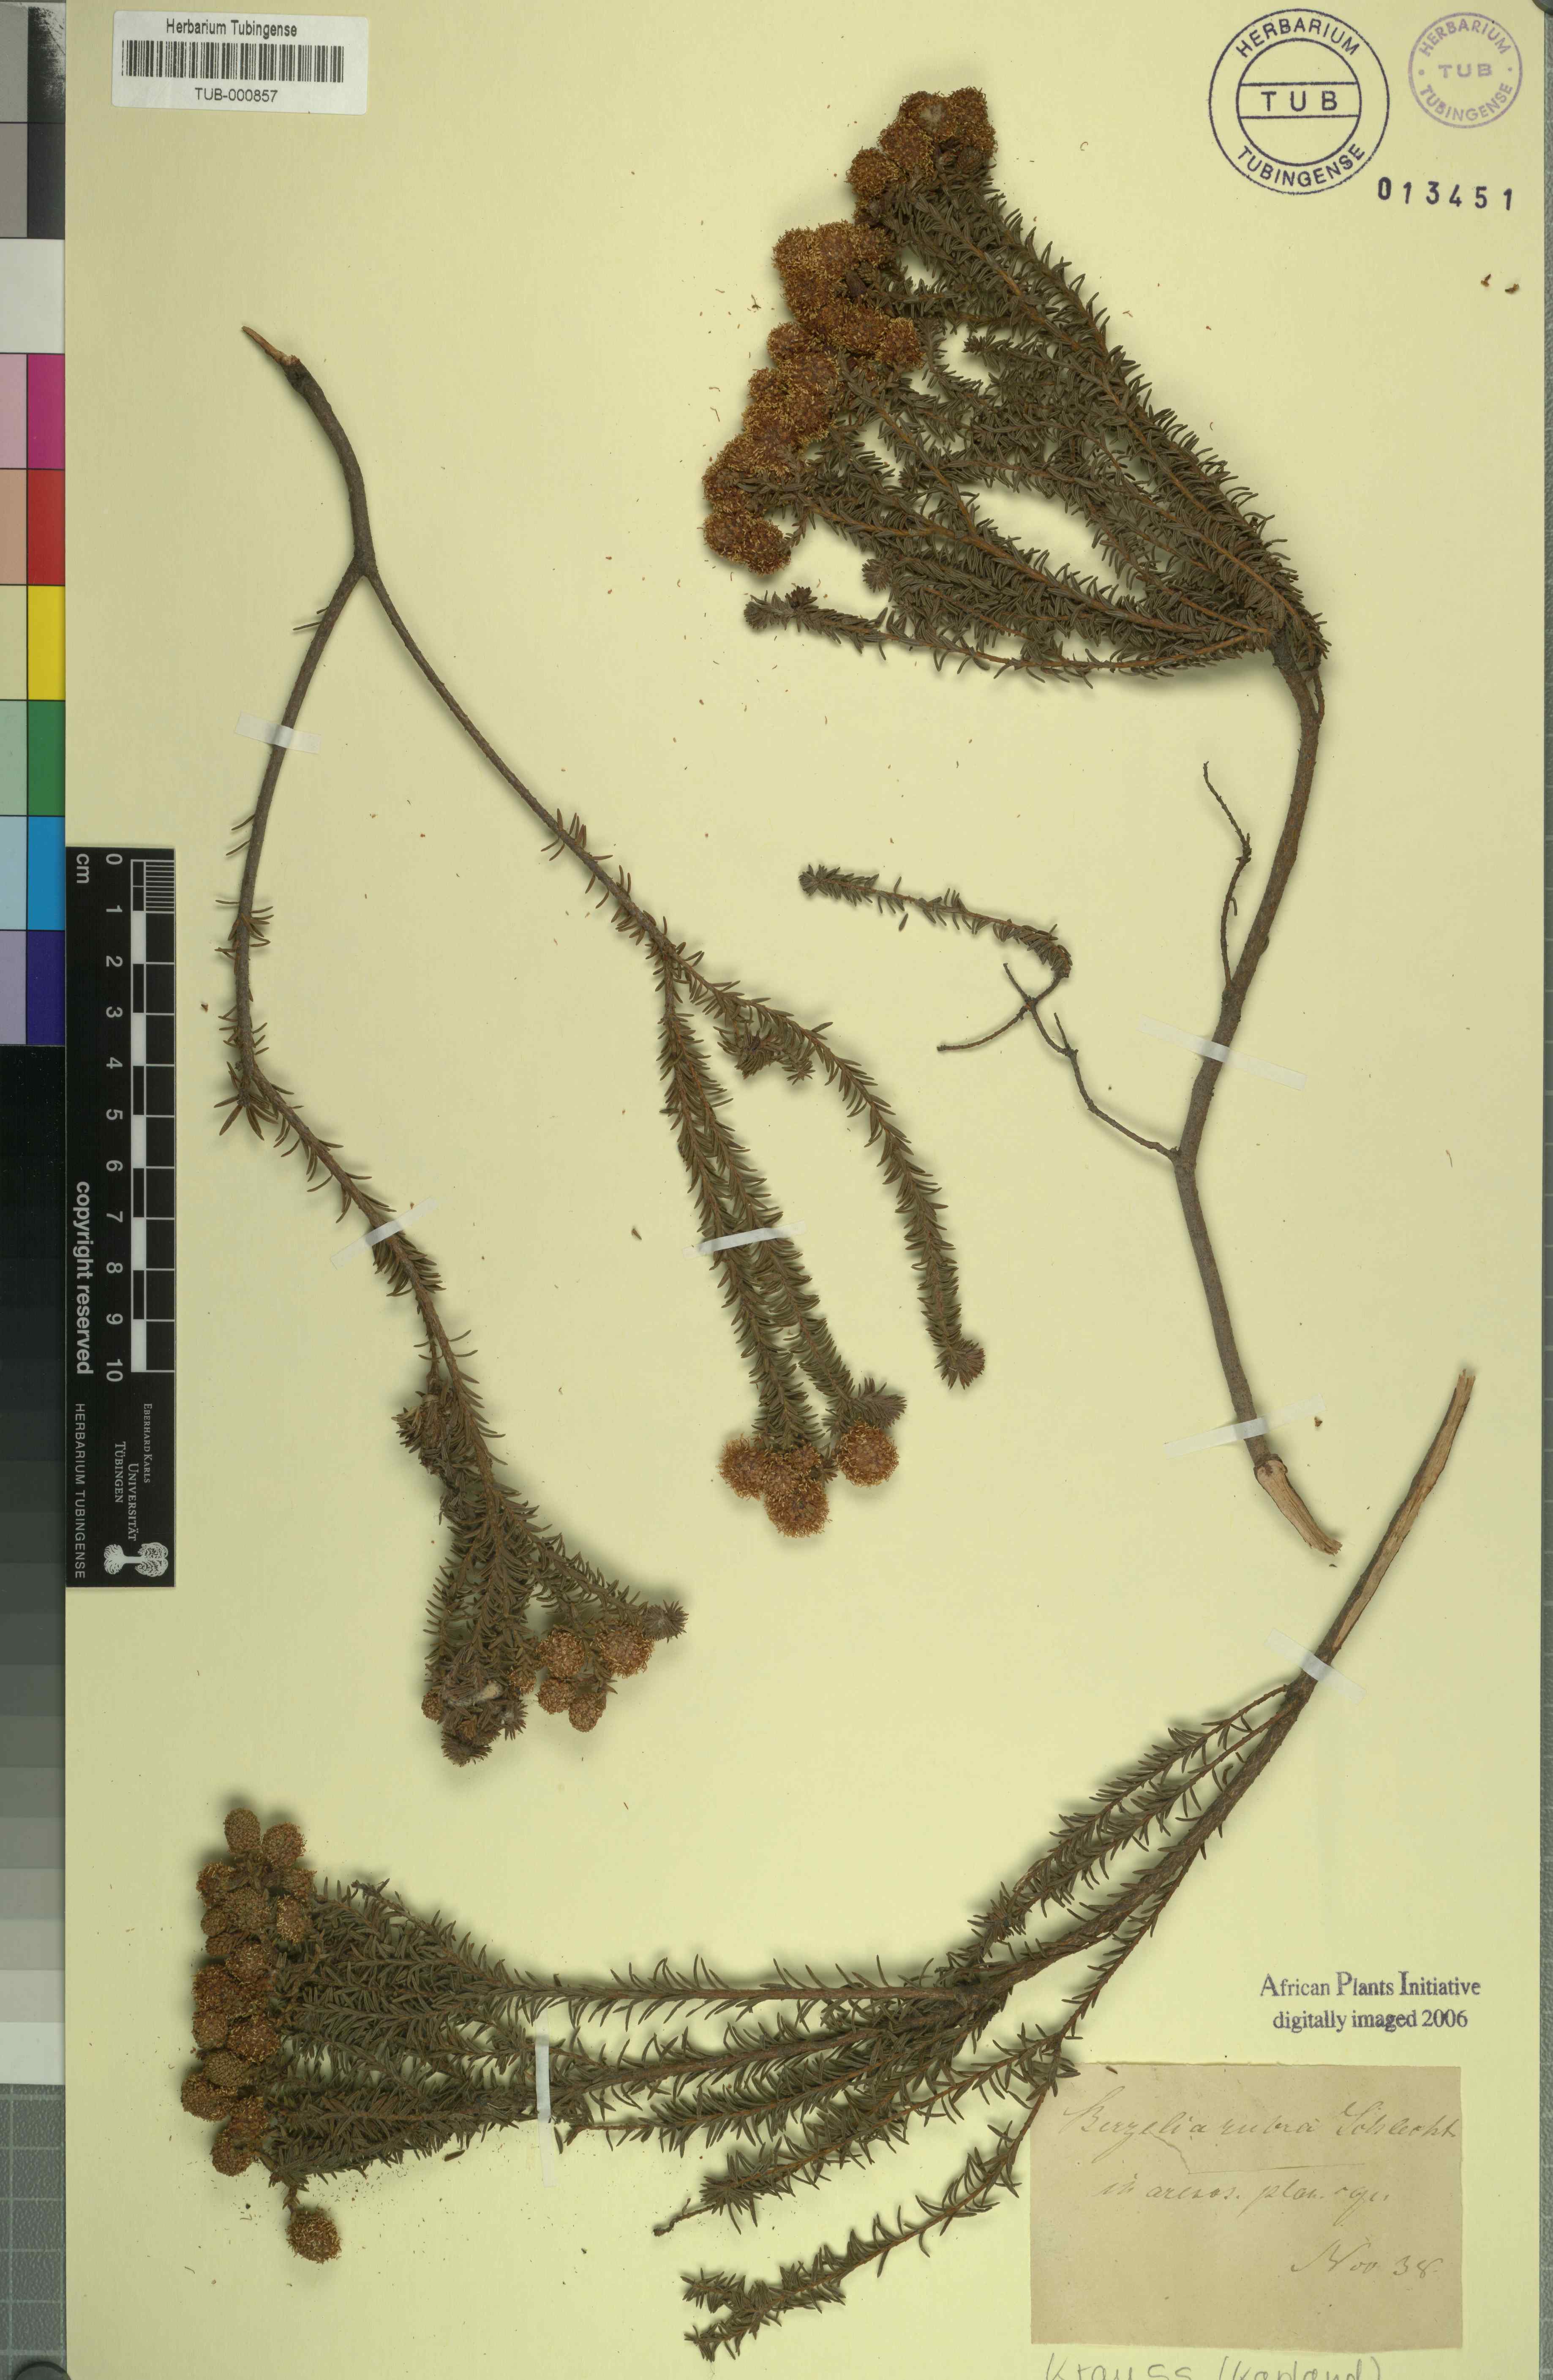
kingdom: Plantae
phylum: Tracheophyta
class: Magnoliopsida
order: Bruniales
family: Bruniaceae
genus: Berzelia
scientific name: Berzelia squarrosa
